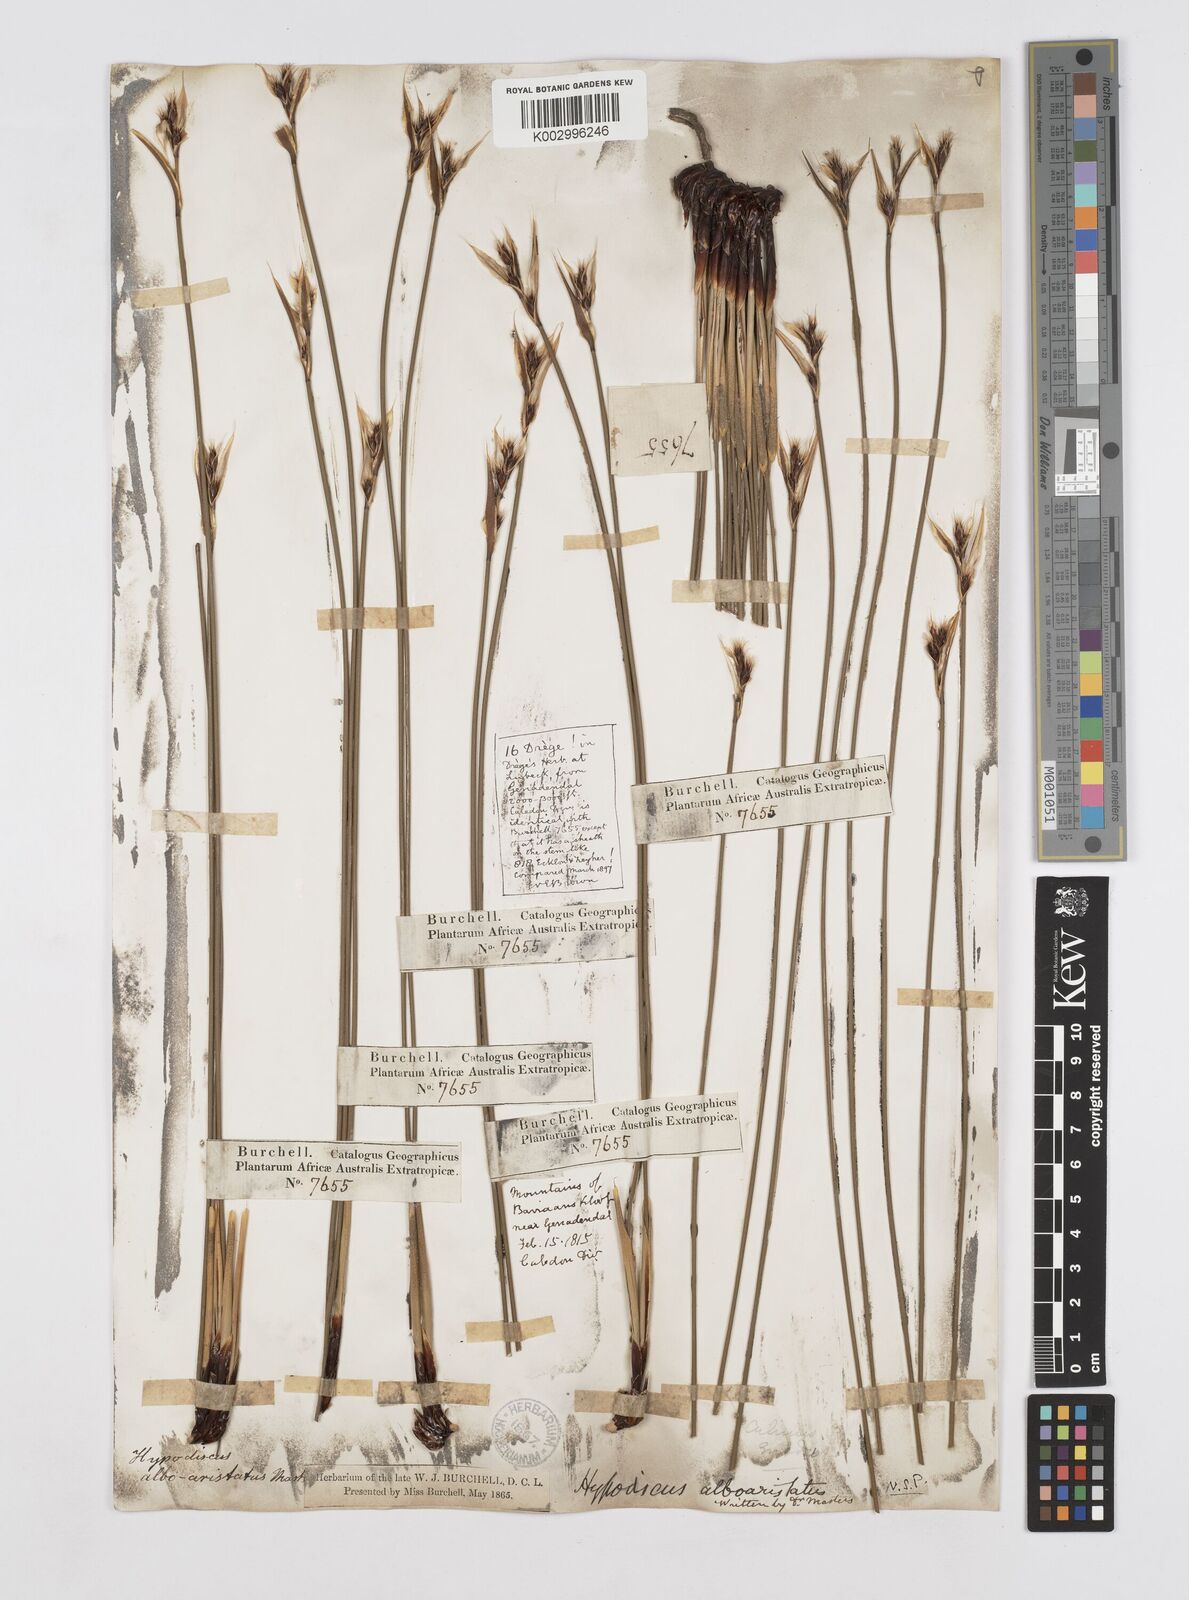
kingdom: Plantae
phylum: Tracheophyta
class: Liliopsida
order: Poales
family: Restionaceae
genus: Hypodiscus
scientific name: Hypodiscus alboaristatus
